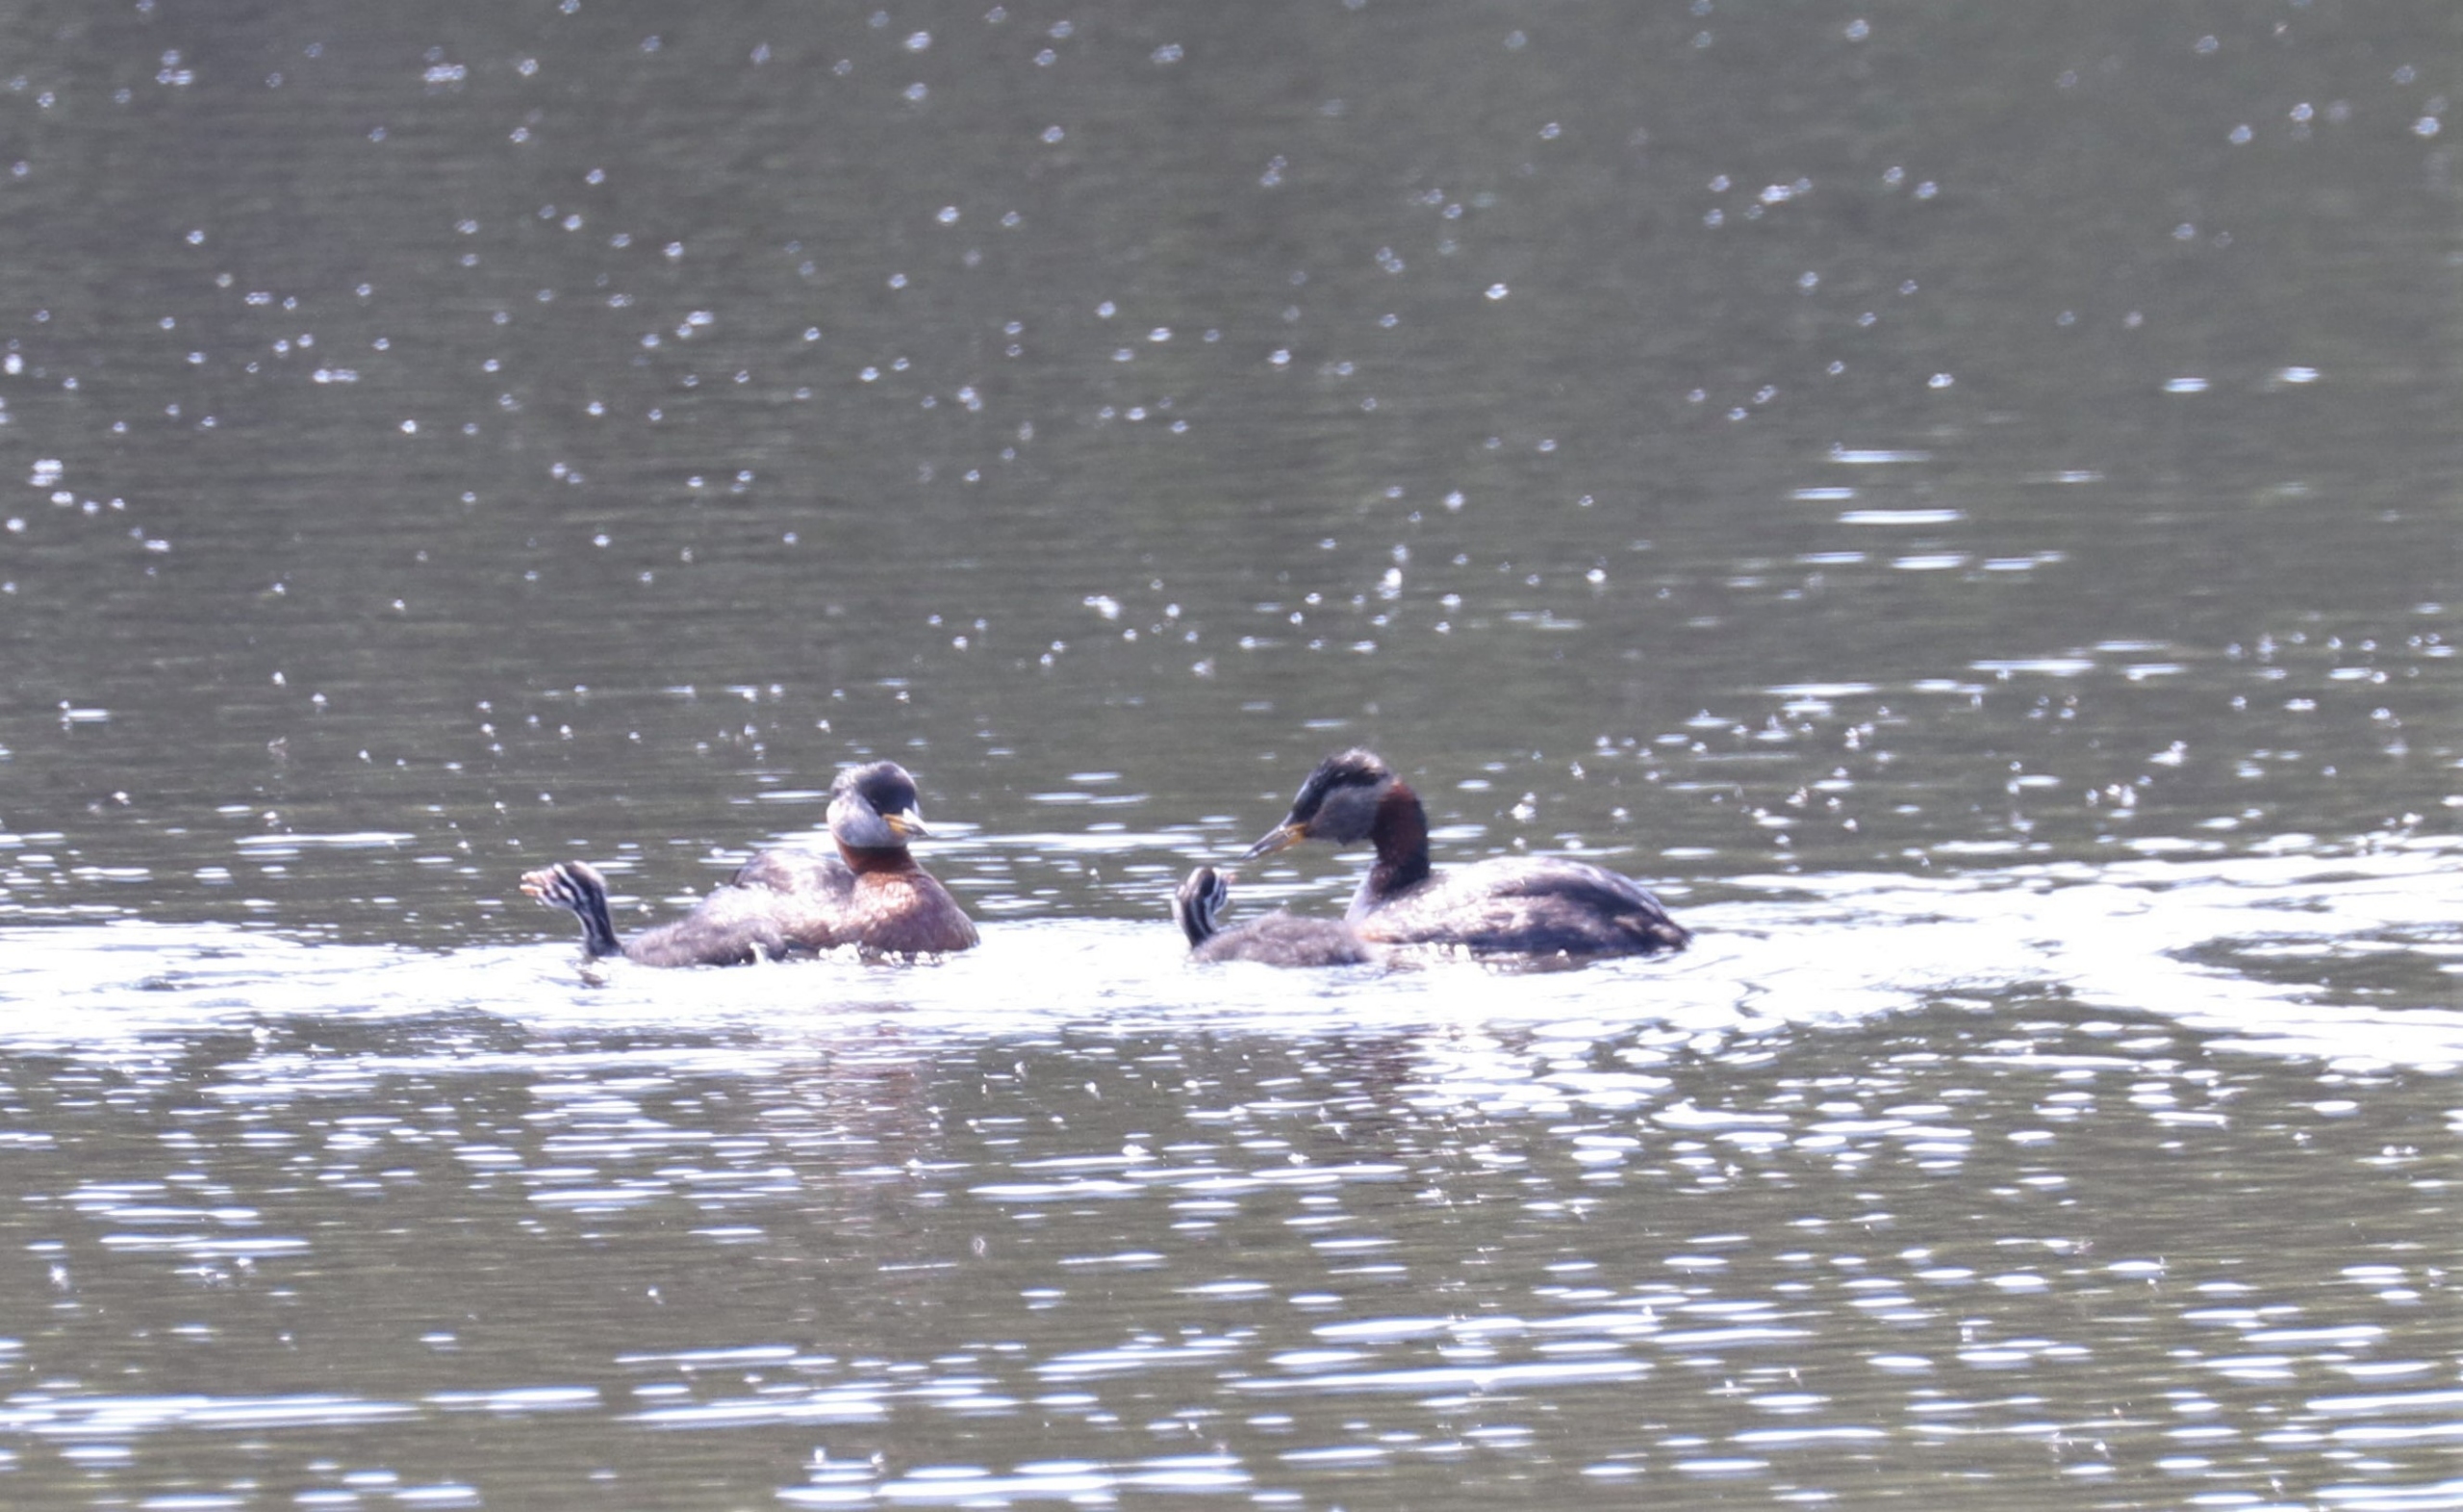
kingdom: Animalia
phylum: Chordata
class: Aves
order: Podicipediformes
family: Podicipedidae
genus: Podiceps
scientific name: Podiceps grisegena
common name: Gråstrubet lappedykker
